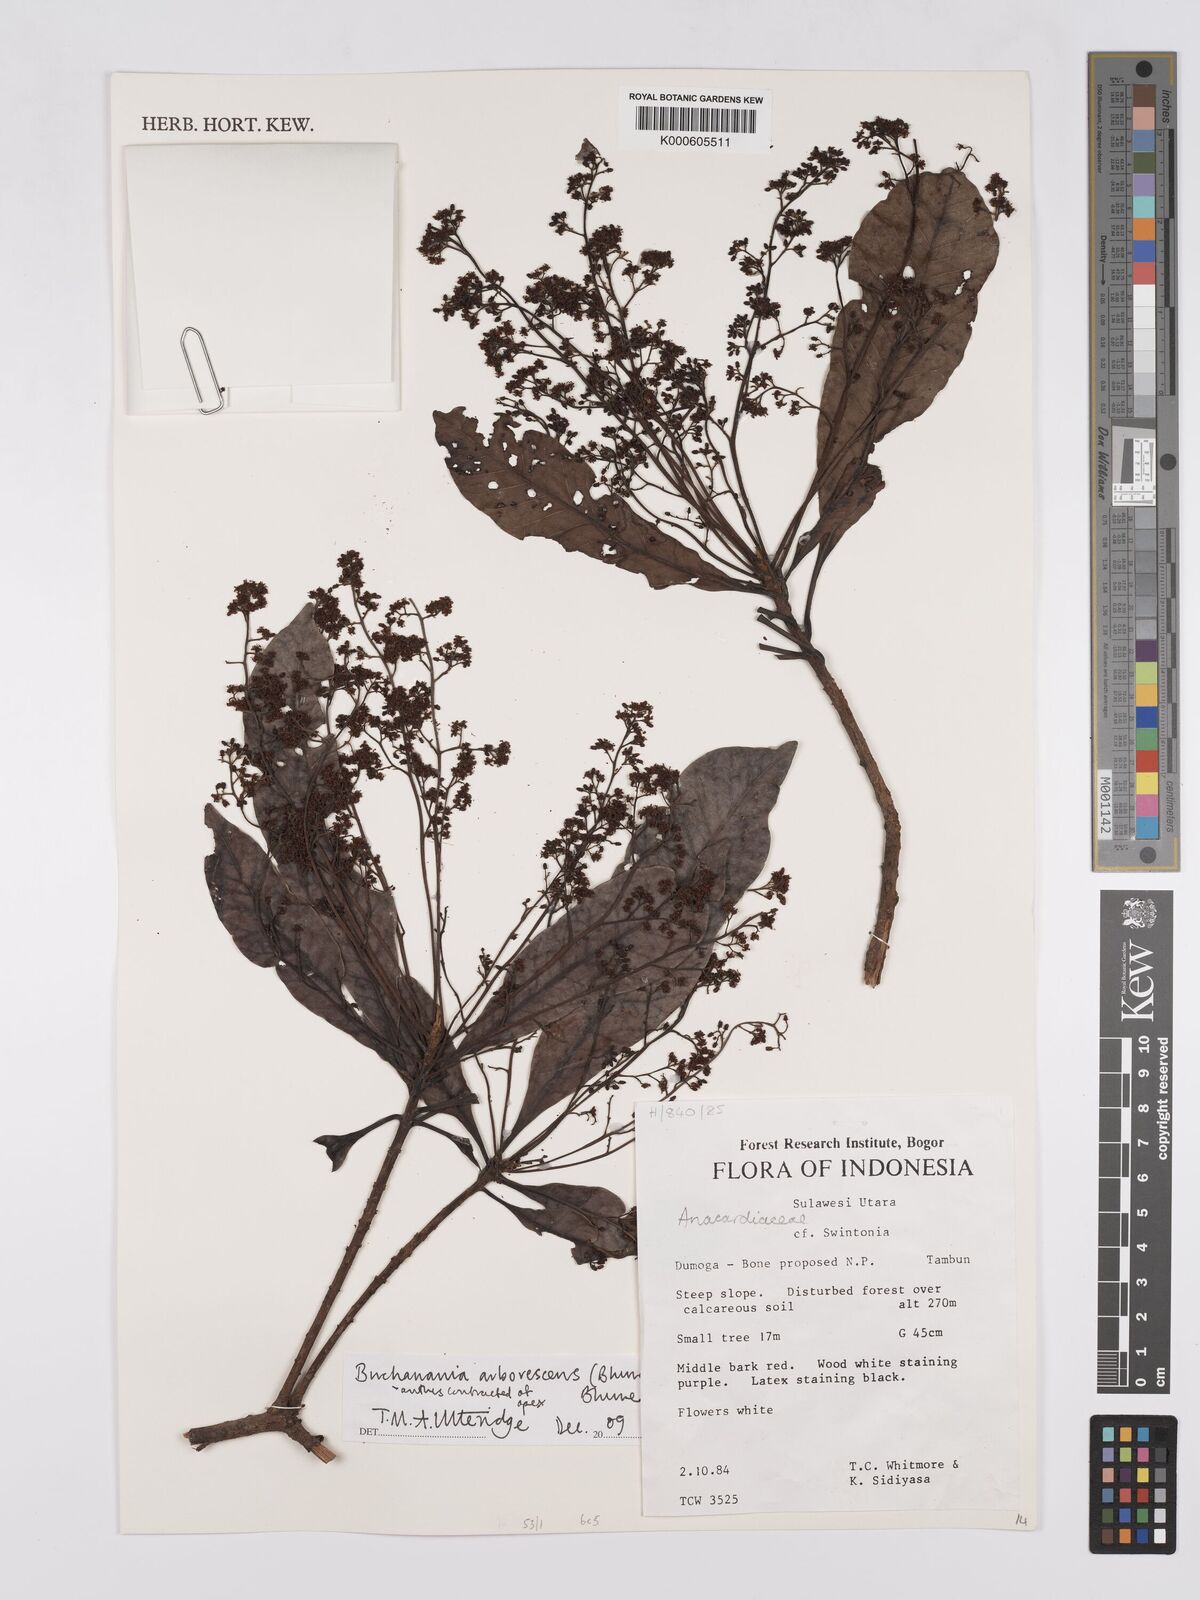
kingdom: Plantae
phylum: Tracheophyta
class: Magnoliopsida
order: Sapindales
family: Anacardiaceae
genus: Buchanania
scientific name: Buchanania arborescens
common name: Sparrow’s mango
